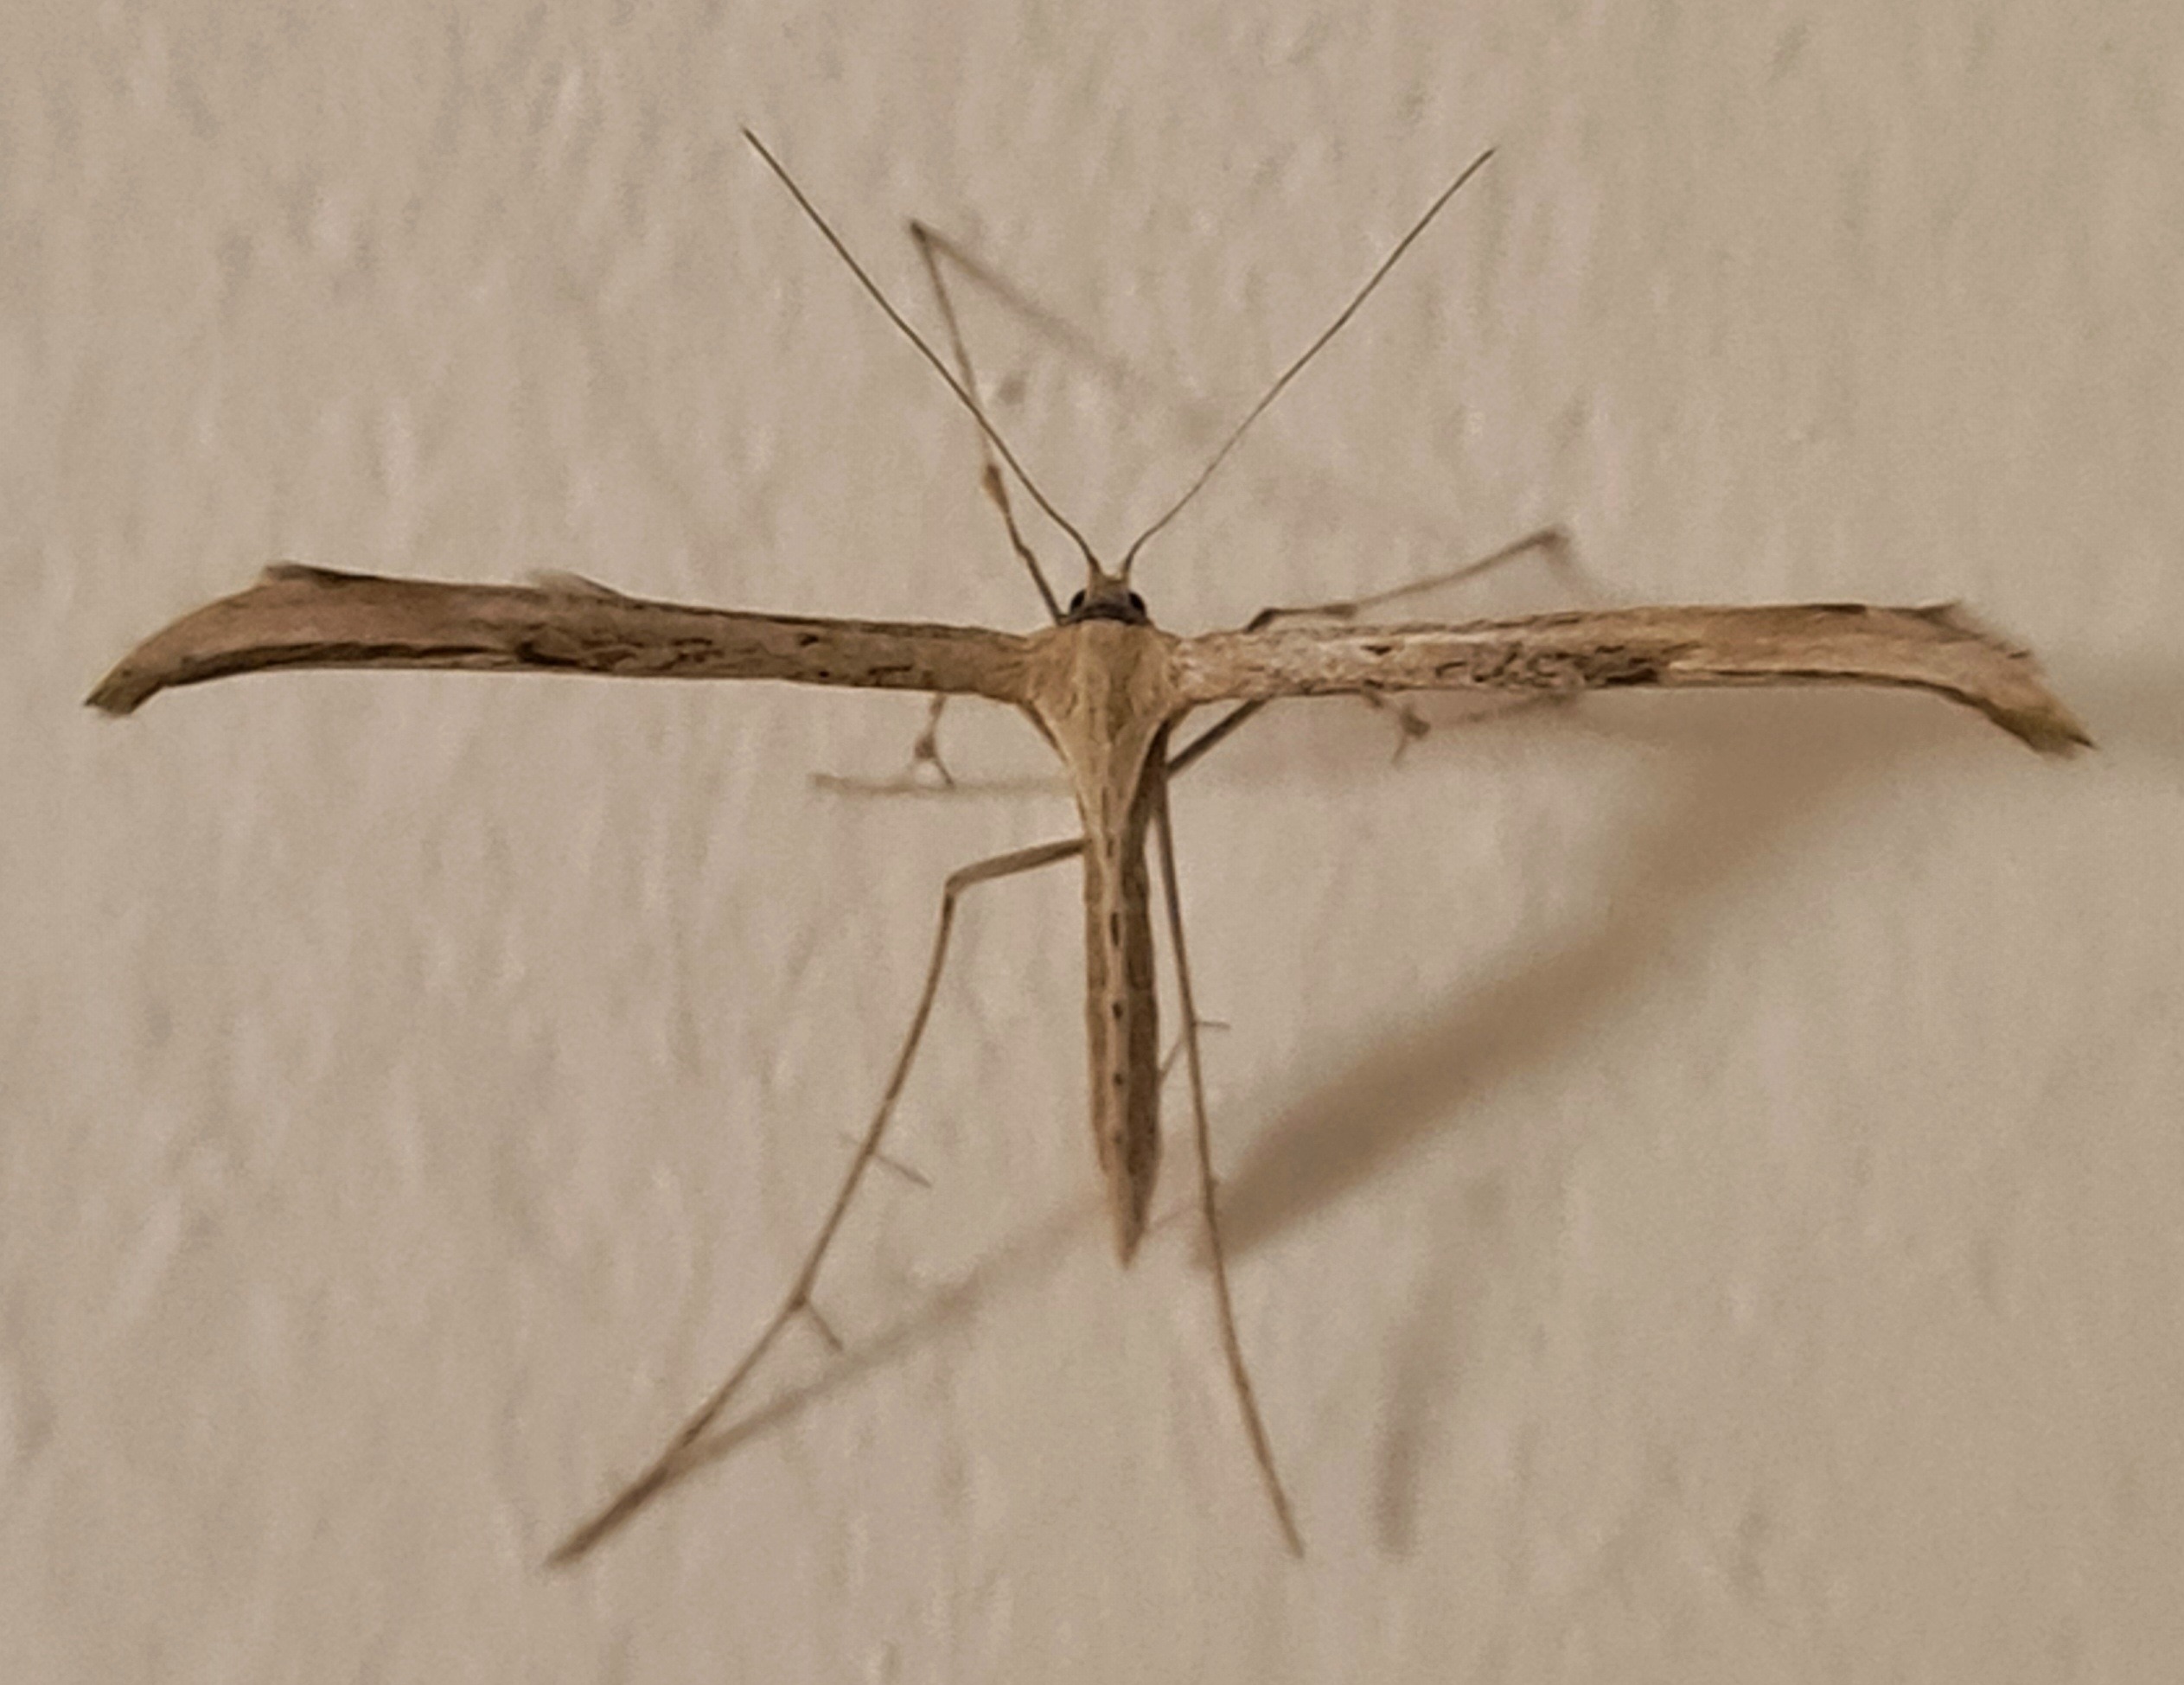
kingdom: Animalia
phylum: Arthropoda
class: Insecta
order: Lepidoptera
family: Pterophoridae
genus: Emmelina
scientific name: Emmelina monodactyla
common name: Snerlefjermøl
